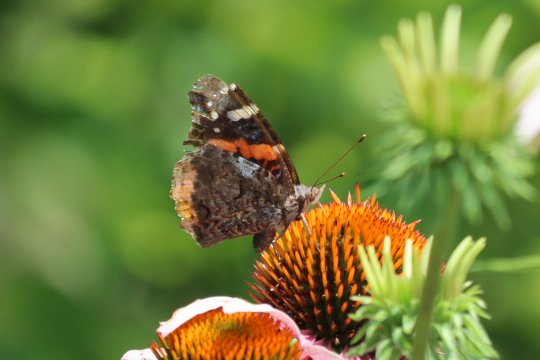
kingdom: Animalia
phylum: Arthropoda
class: Insecta
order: Lepidoptera
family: Nymphalidae
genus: Vanessa
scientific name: Vanessa atalanta
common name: Red Admiral
